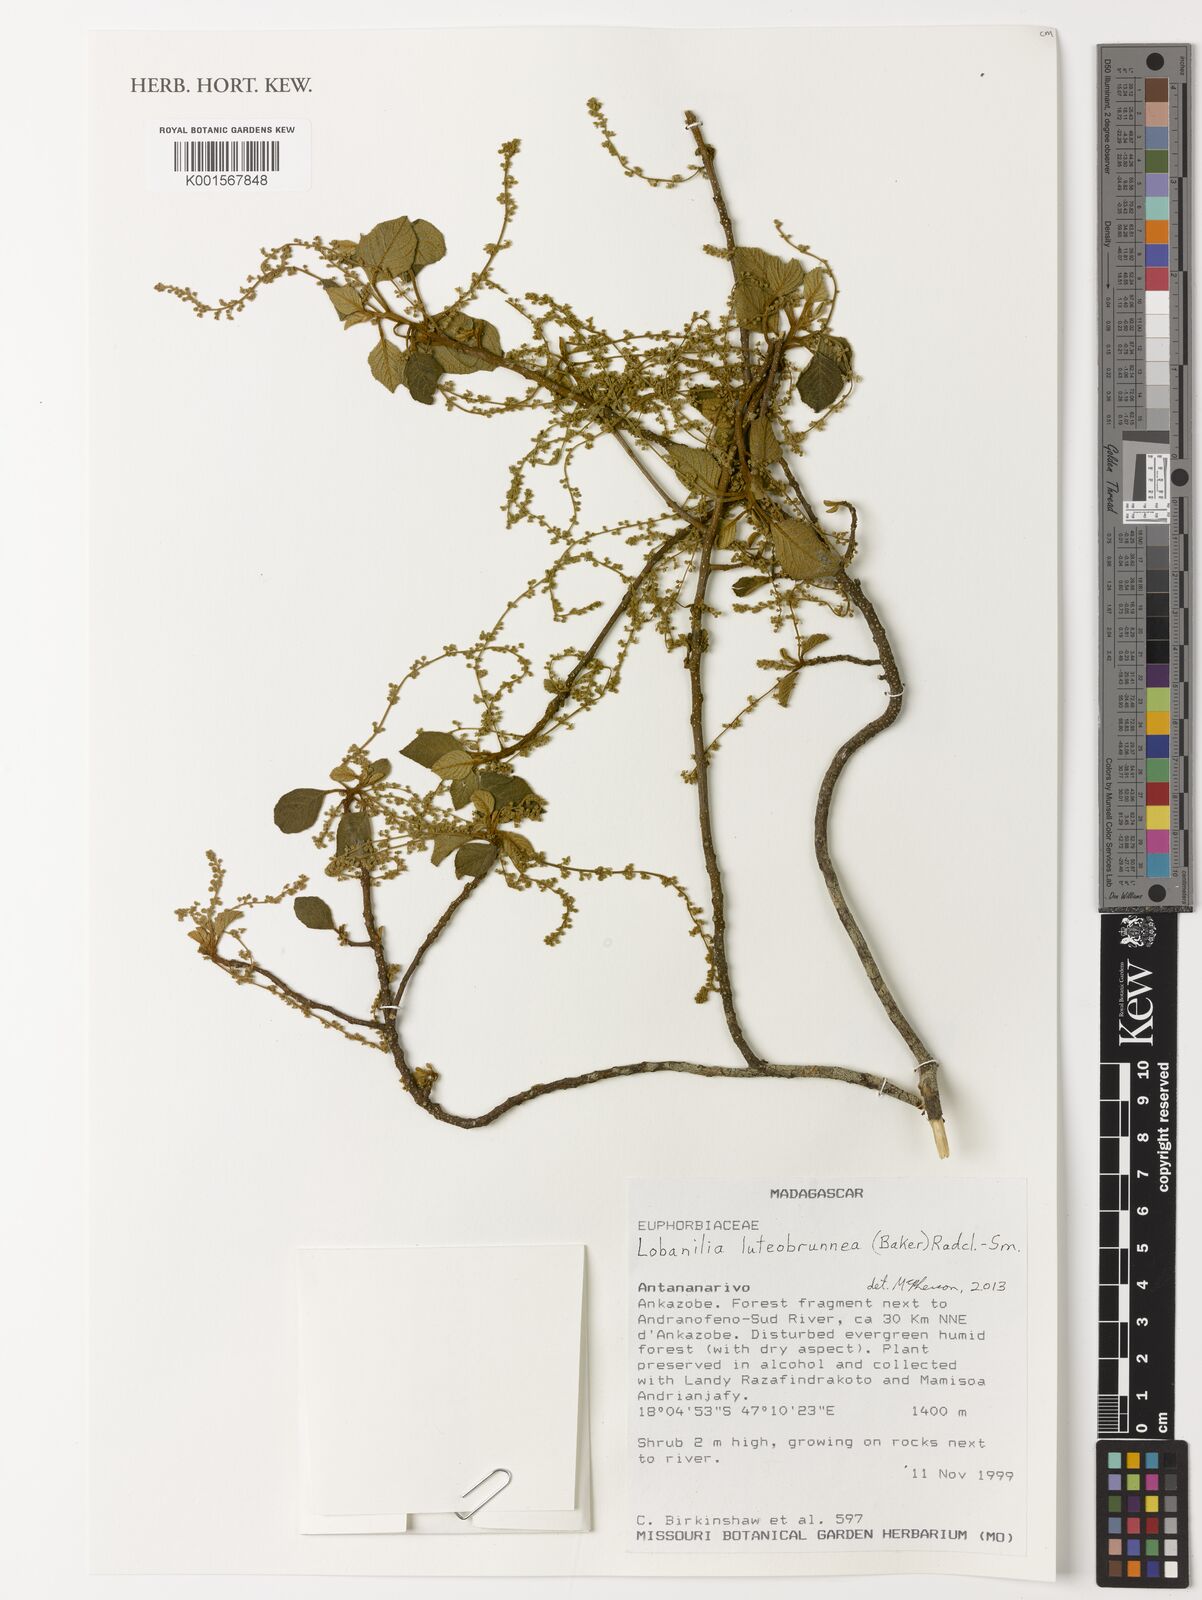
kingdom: Plantae
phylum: Tracheophyta
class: Magnoliopsida
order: Malpighiales
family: Euphorbiaceae
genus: Lobanilia
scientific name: Lobanilia luteobrunnea
